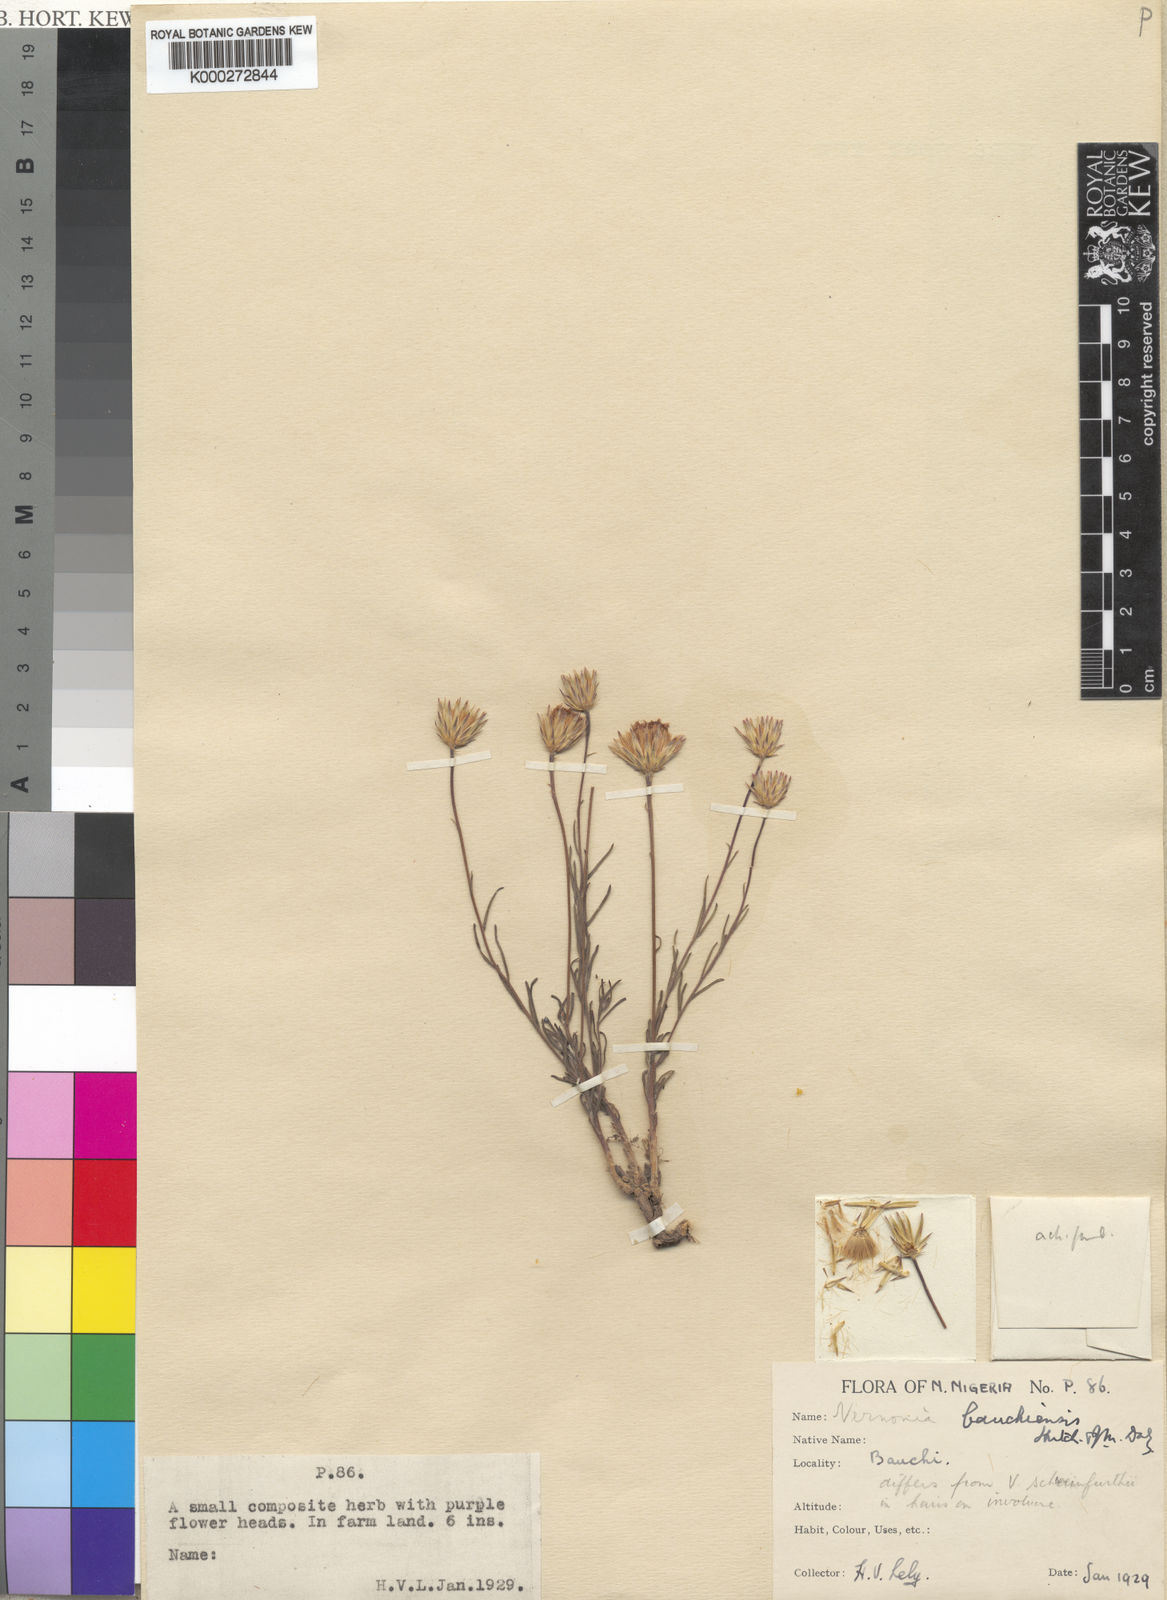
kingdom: Plantae
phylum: Tracheophyta
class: Magnoliopsida
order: Asterales
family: Asteraceae
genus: Vernonia
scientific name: Vernonia bauchiensis
